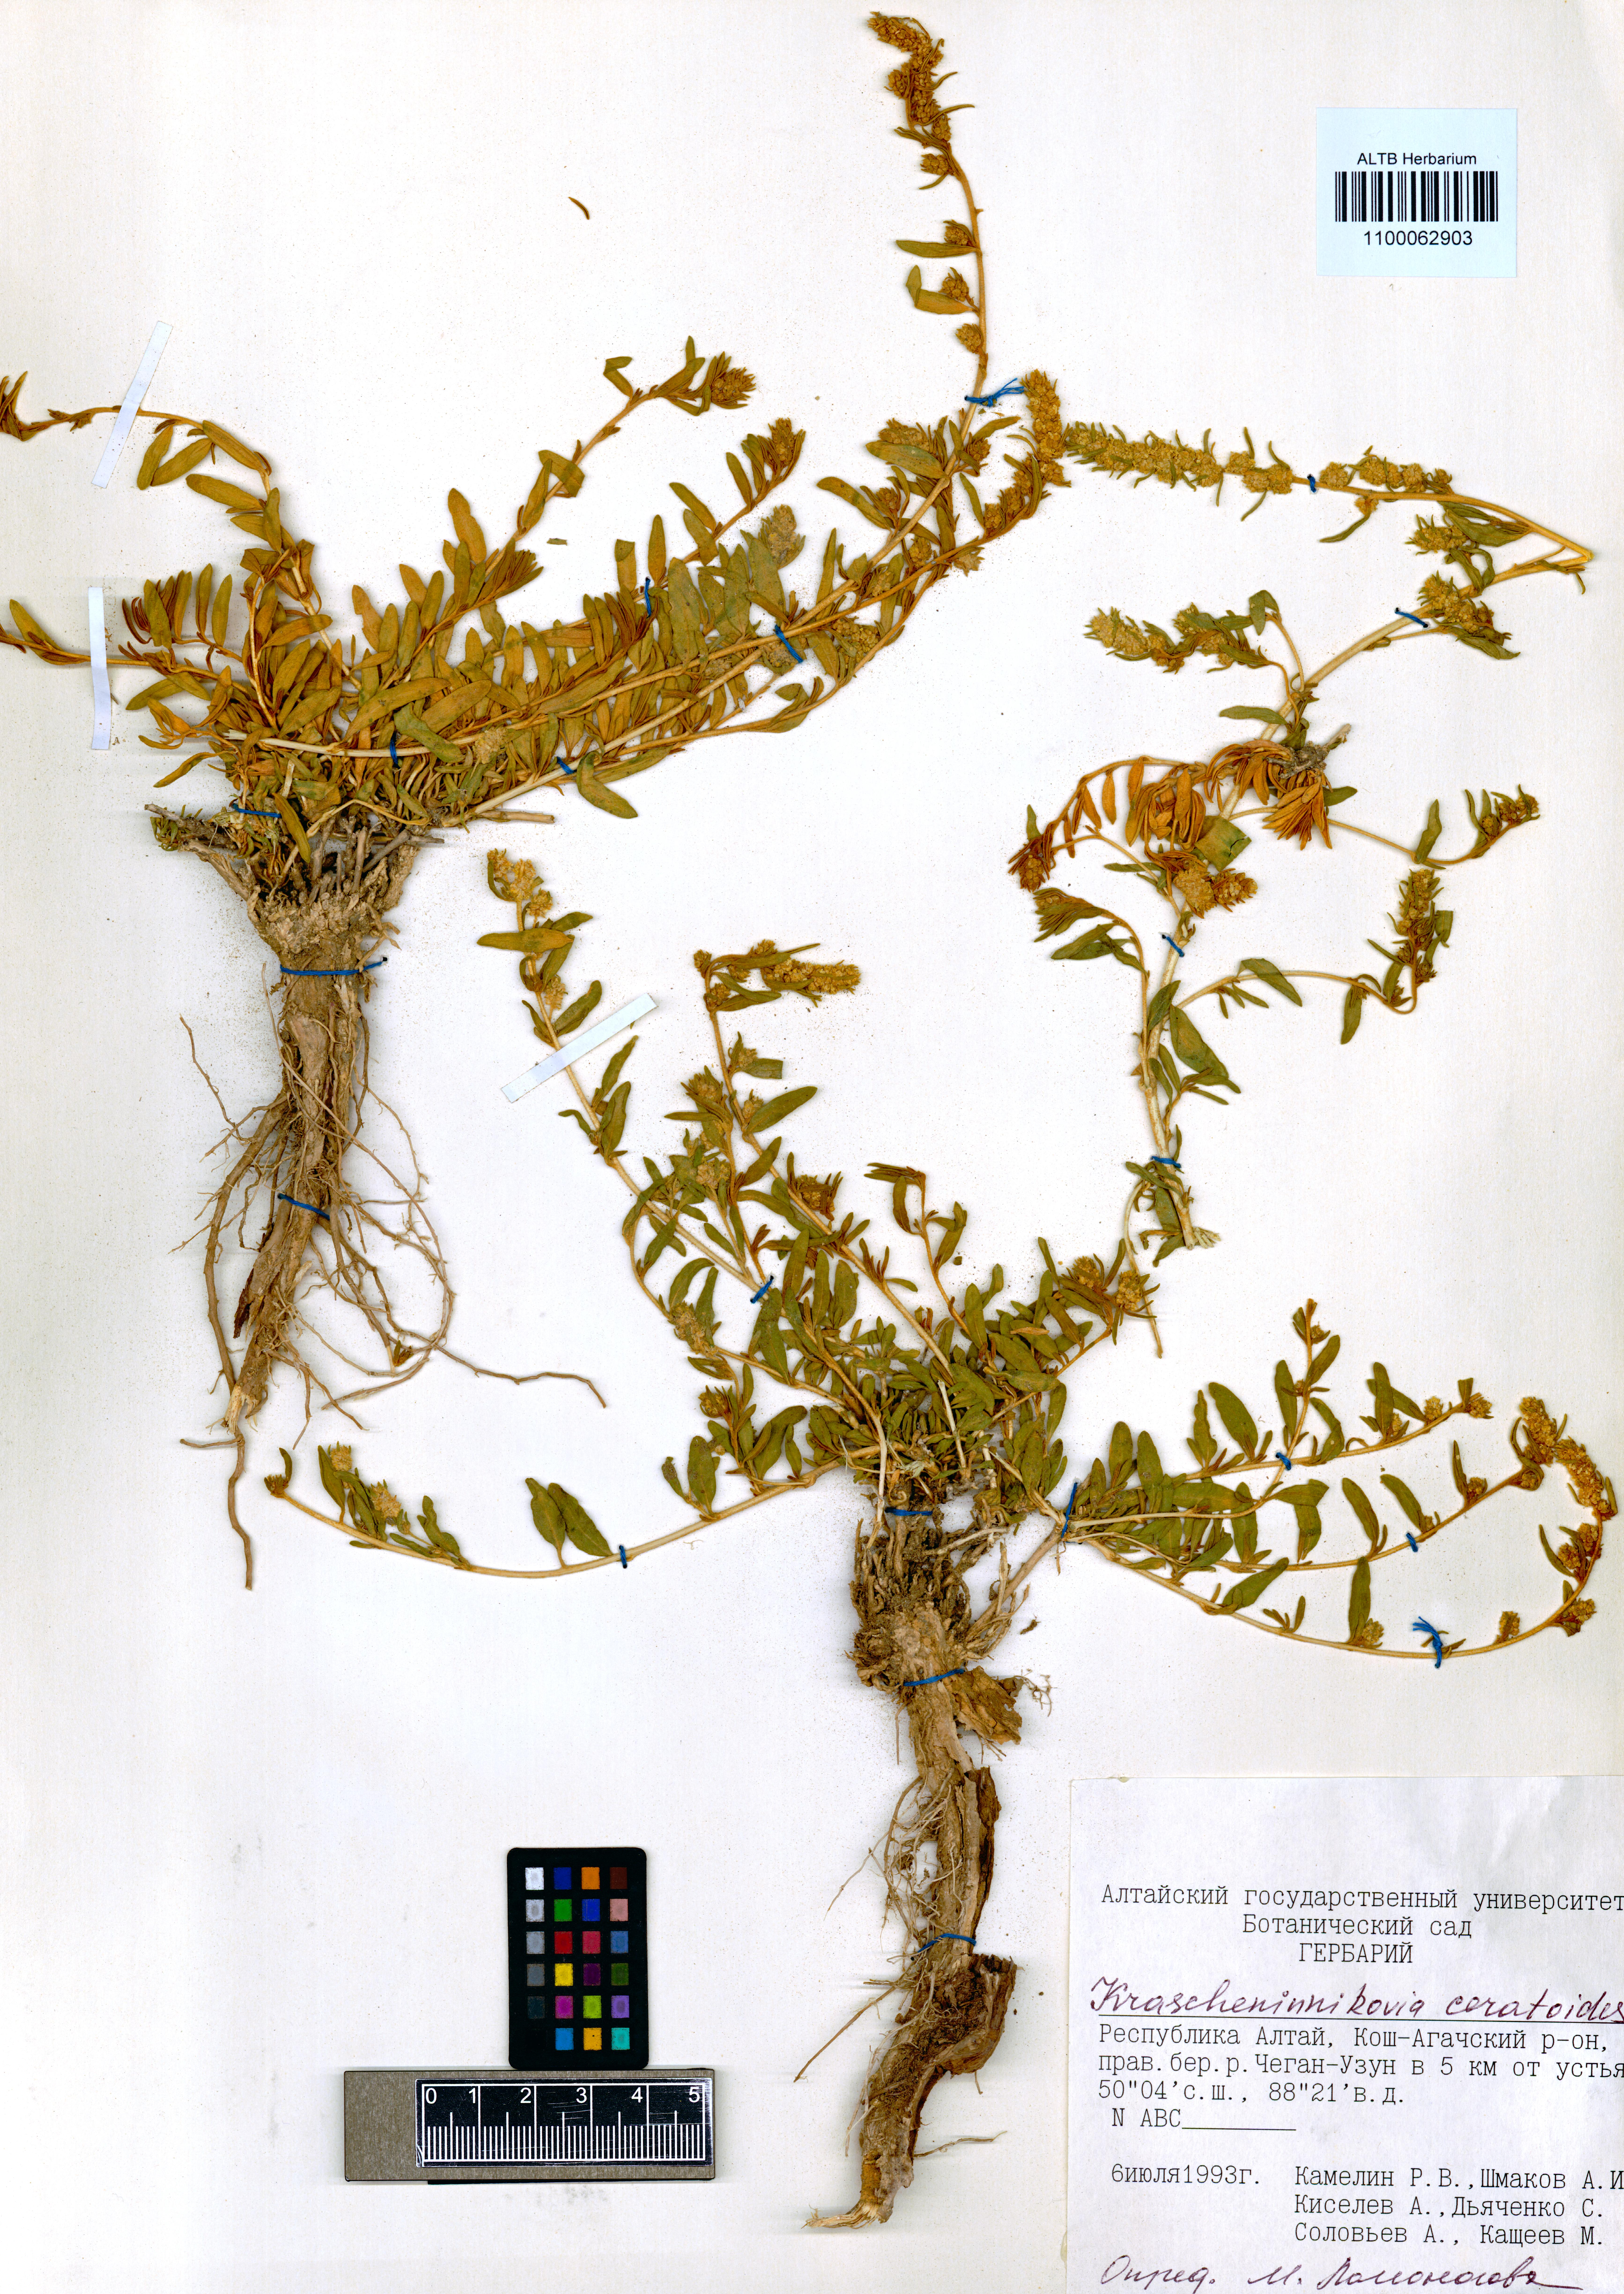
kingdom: Plantae
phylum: Tracheophyta
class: Magnoliopsida
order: Caryophyllales
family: Amaranthaceae
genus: Krascheninnikovia
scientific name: Krascheninnikovia ceratoides
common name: Pamirian winterfat
